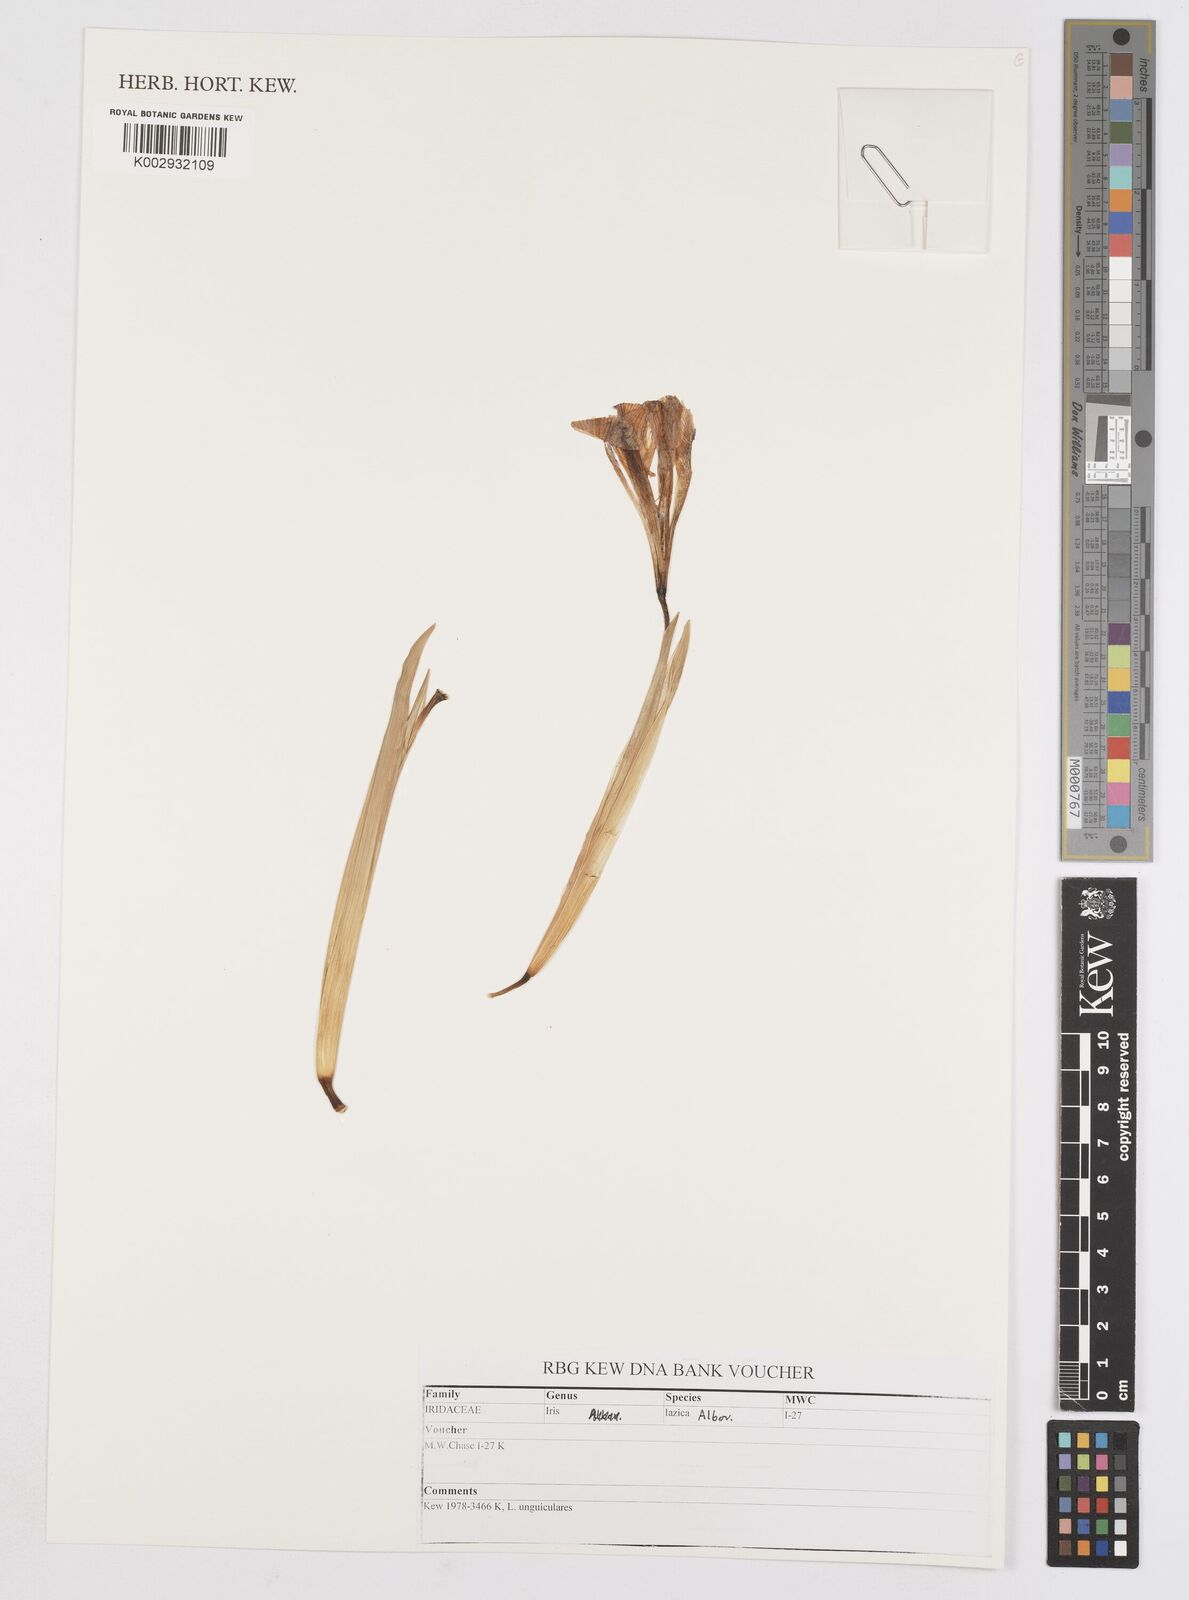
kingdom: Plantae
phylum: Tracheophyta
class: Liliopsida
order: Asparagales
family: Iridaceae
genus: Iris
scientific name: Iris lazica
